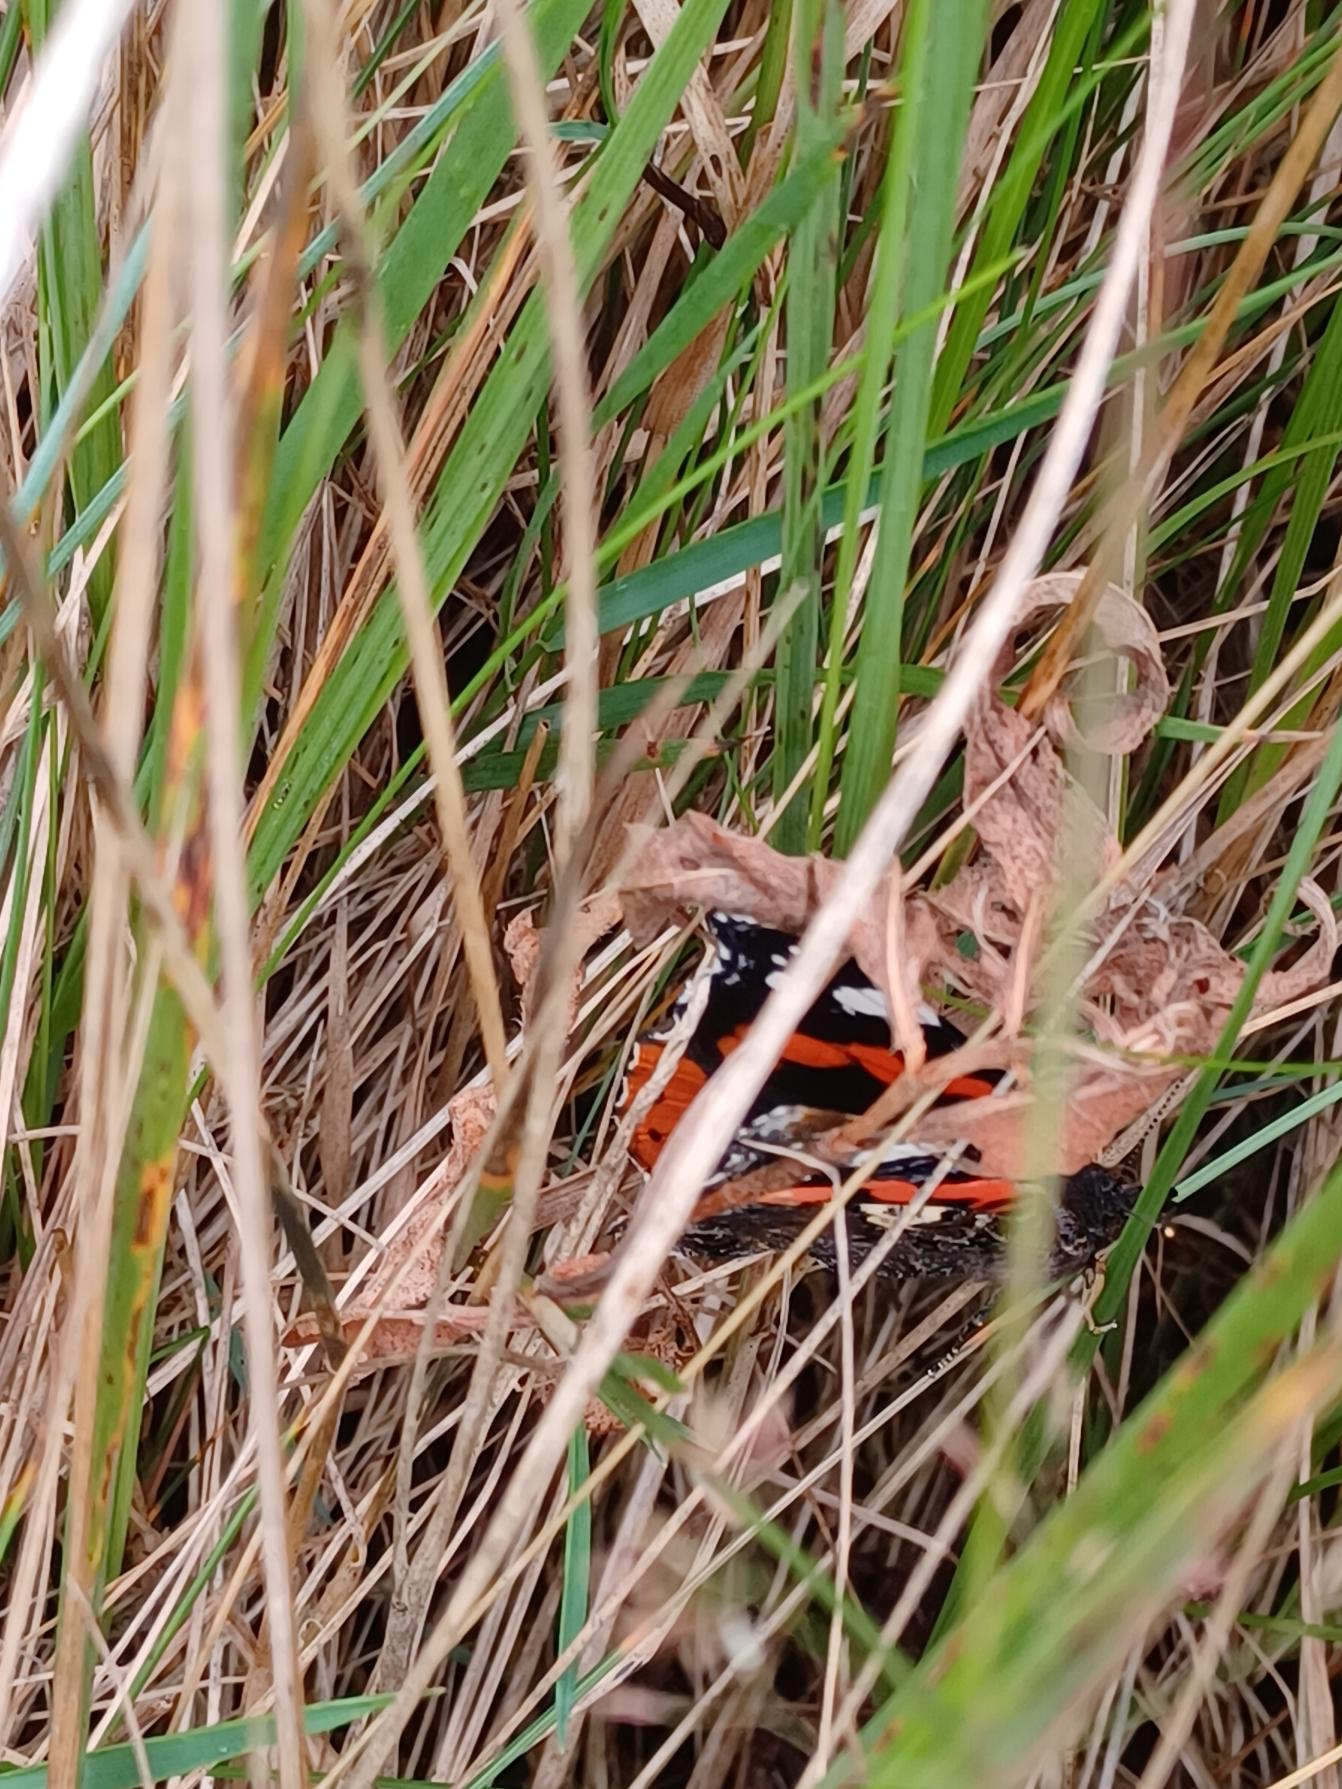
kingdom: Animalia
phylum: Arthropoda
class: Insecta
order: Lepidoptera
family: Nymphalidae
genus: Vanessa
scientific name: Vanessa atalanta
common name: Admiral
